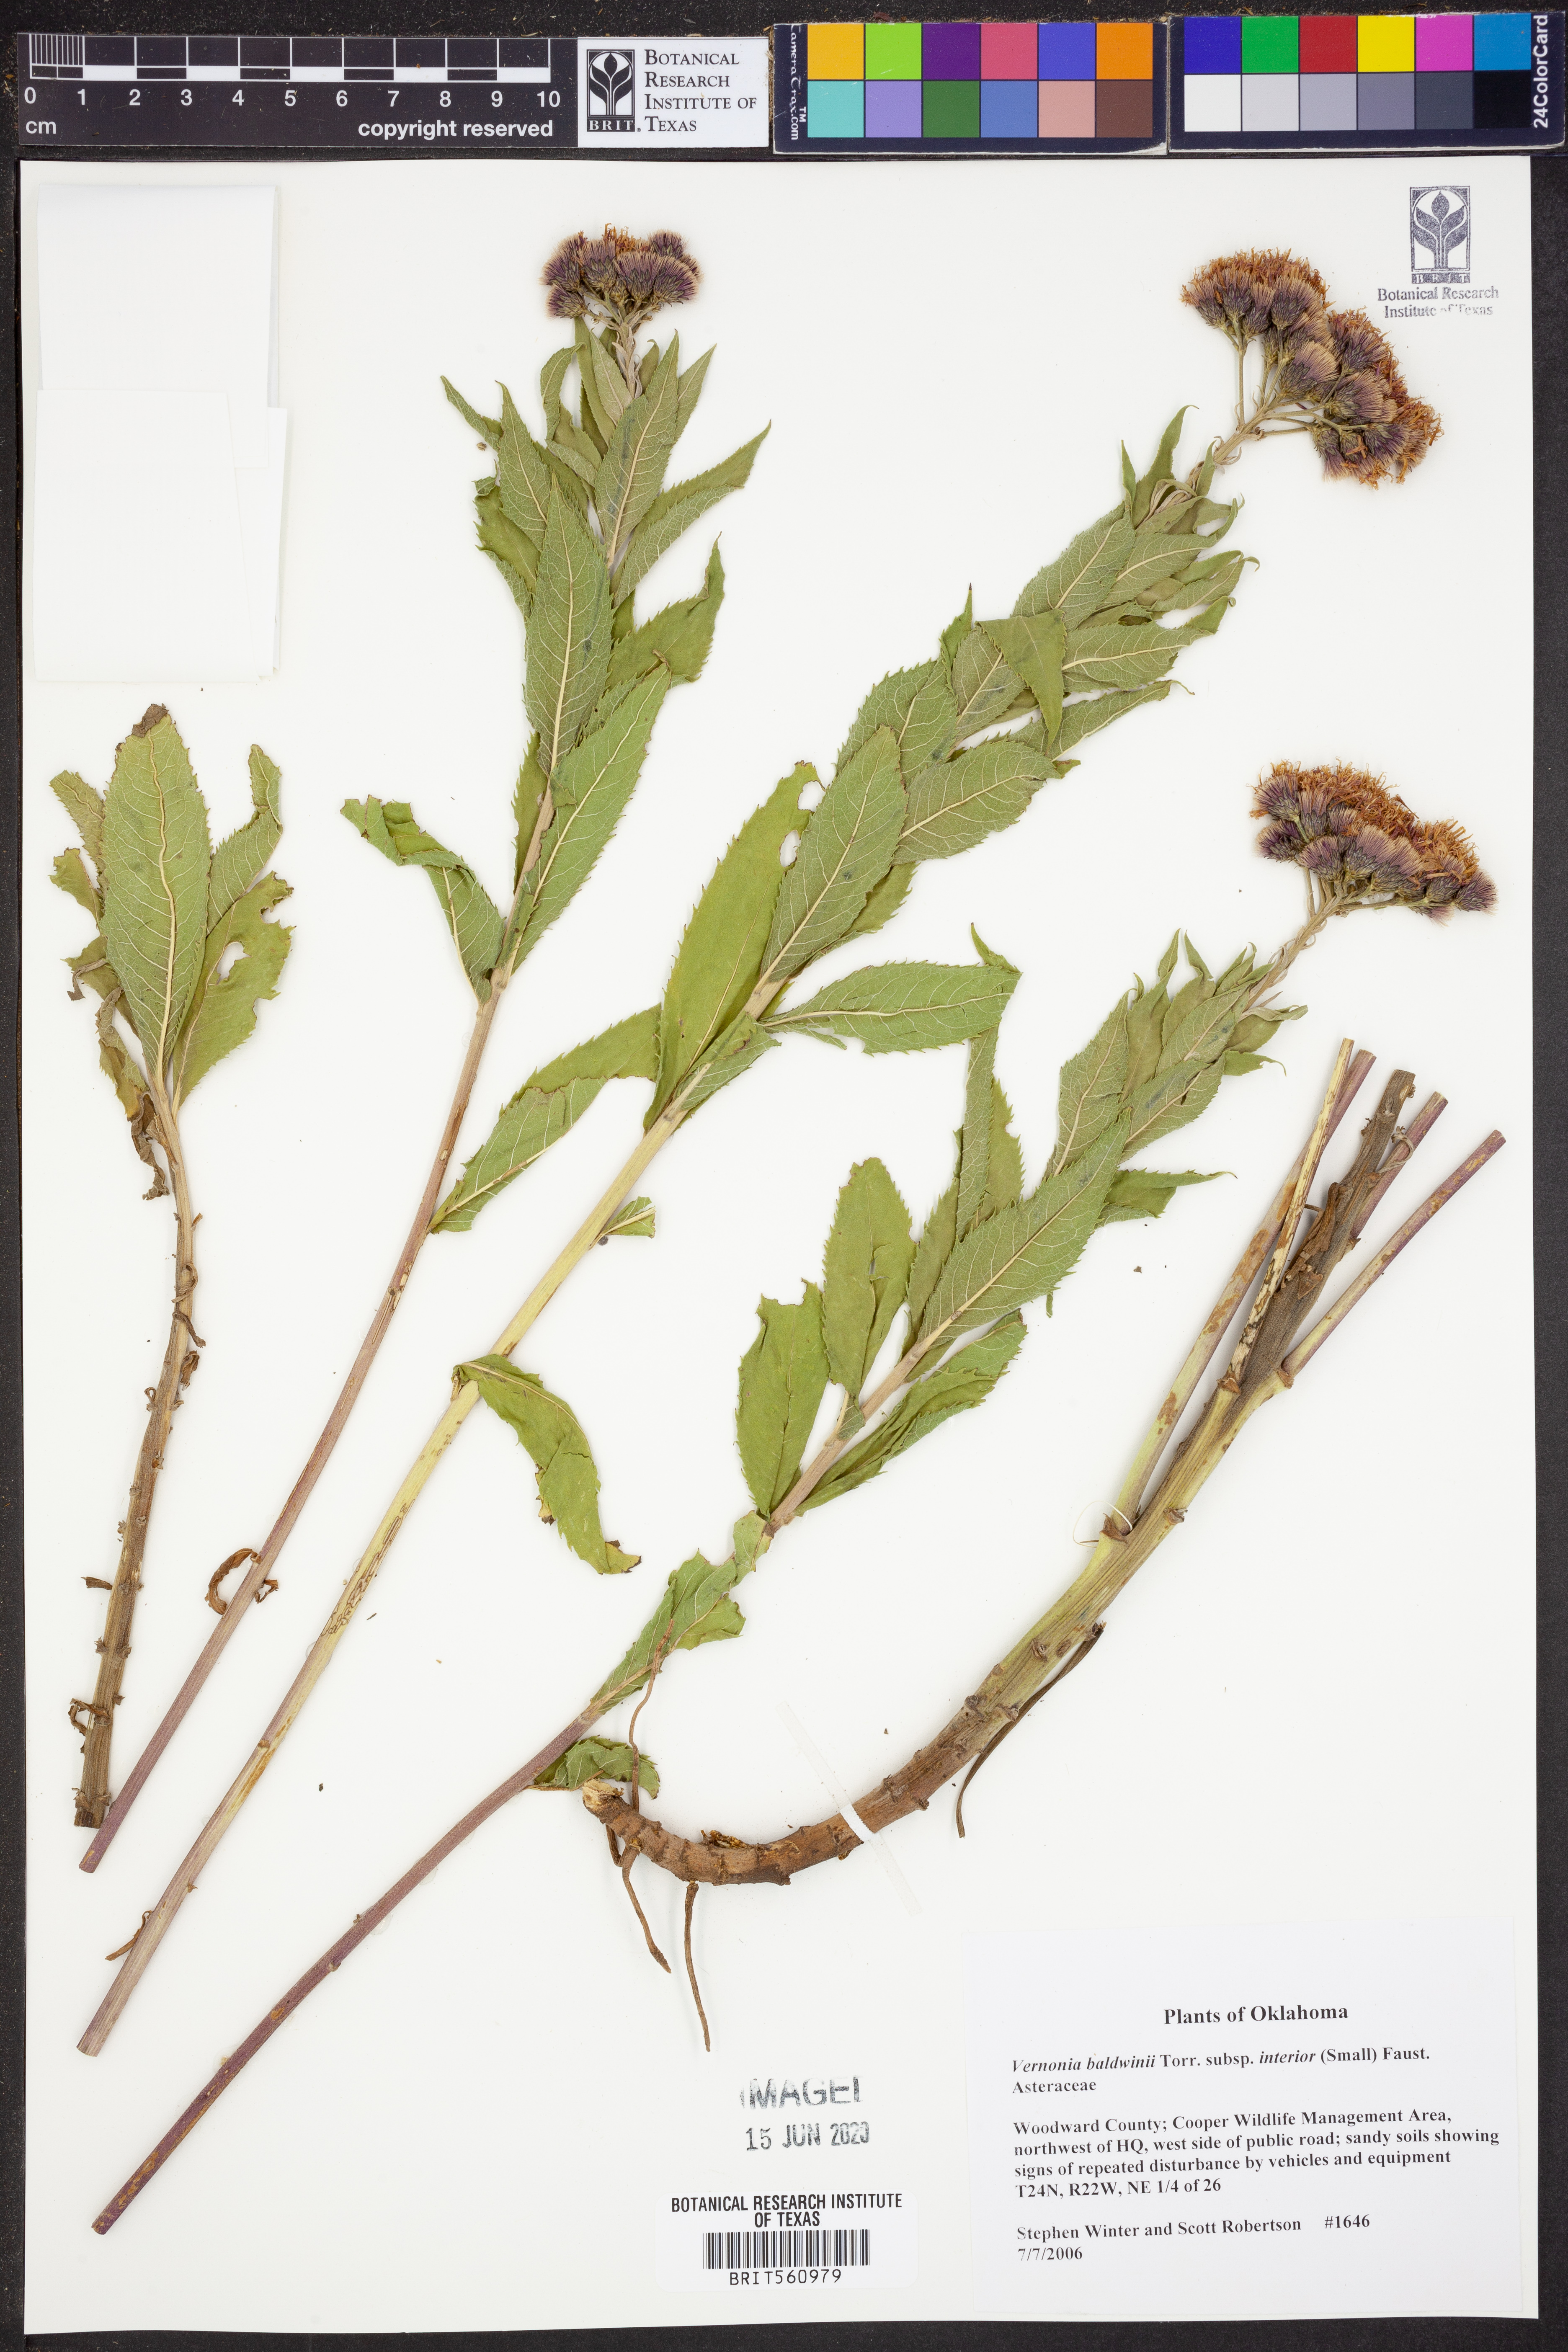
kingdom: Plantae
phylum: Tracheophyta
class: Magnoliopsida
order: Asterales
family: Asteraceae
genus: Vernonia
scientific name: Vernonia baldwinii
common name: Western ironweed
